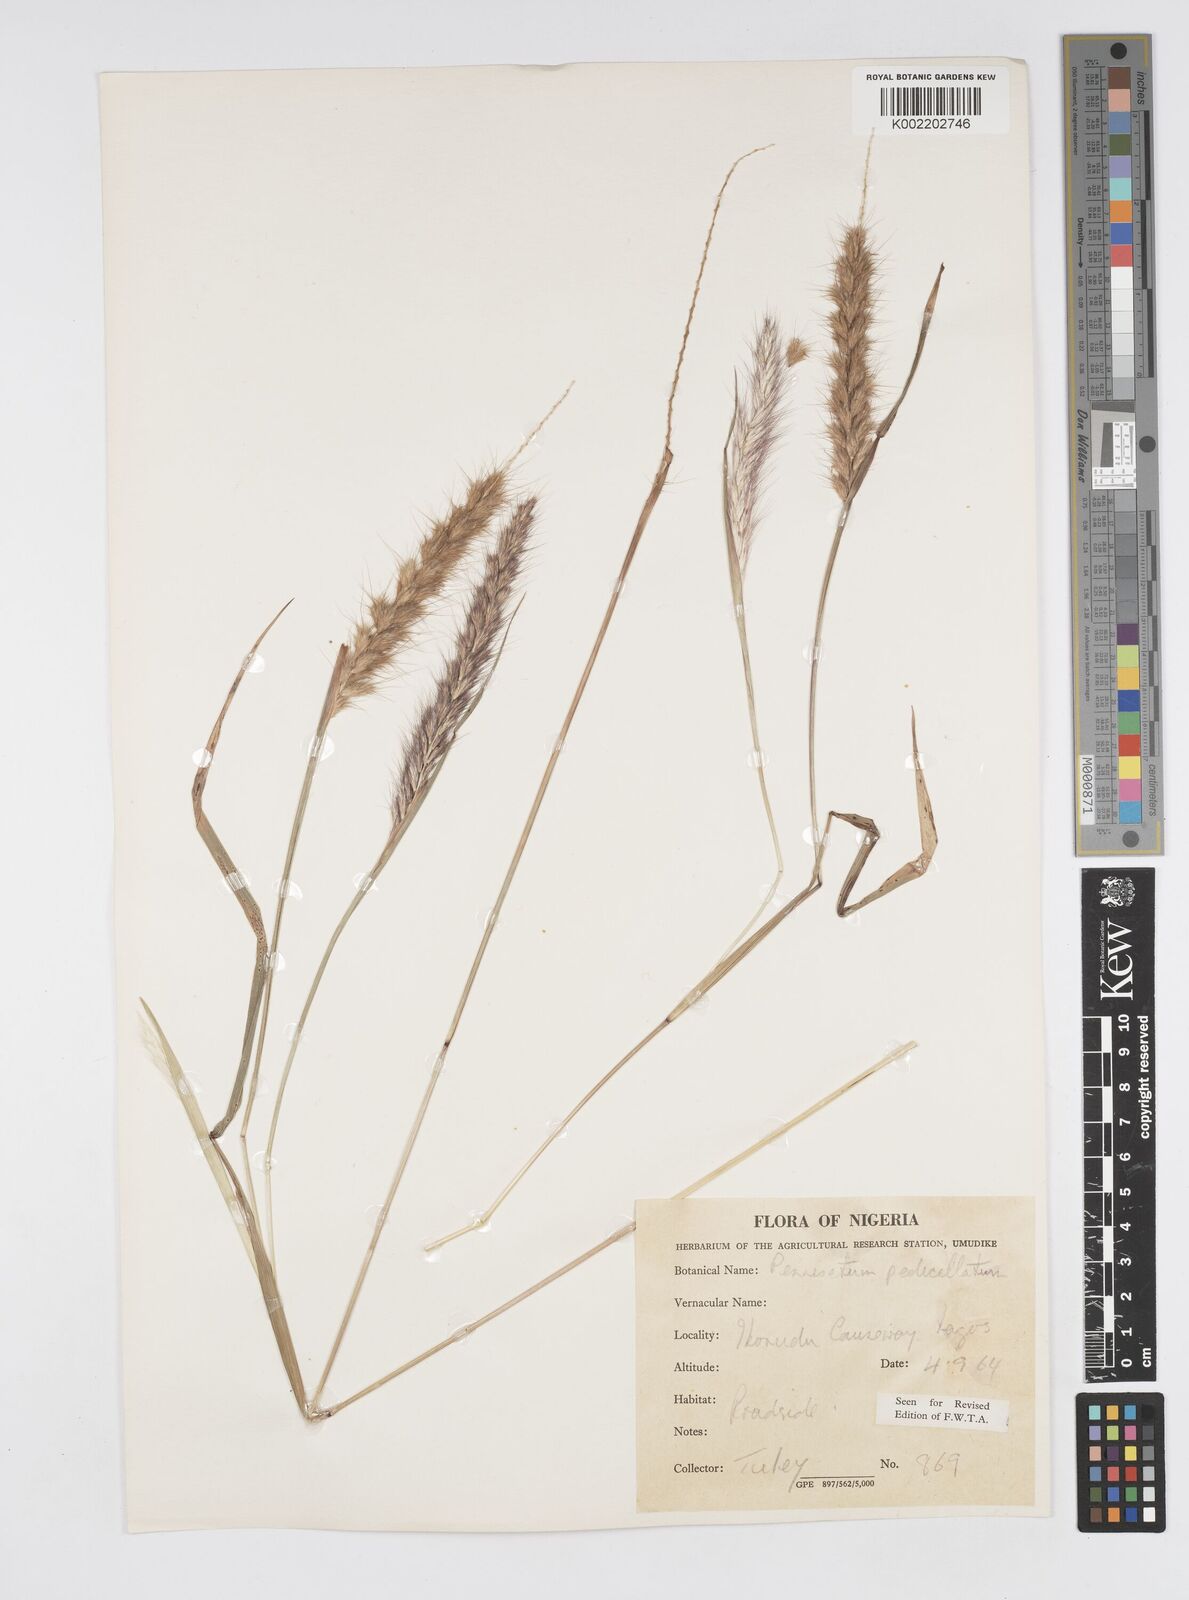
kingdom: Plantae
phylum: Tracheophyta
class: Liliopsida
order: Poales
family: Poaceae
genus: Cenchrus
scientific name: Cenchrus pedicellatus
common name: Hairy fountain grass
